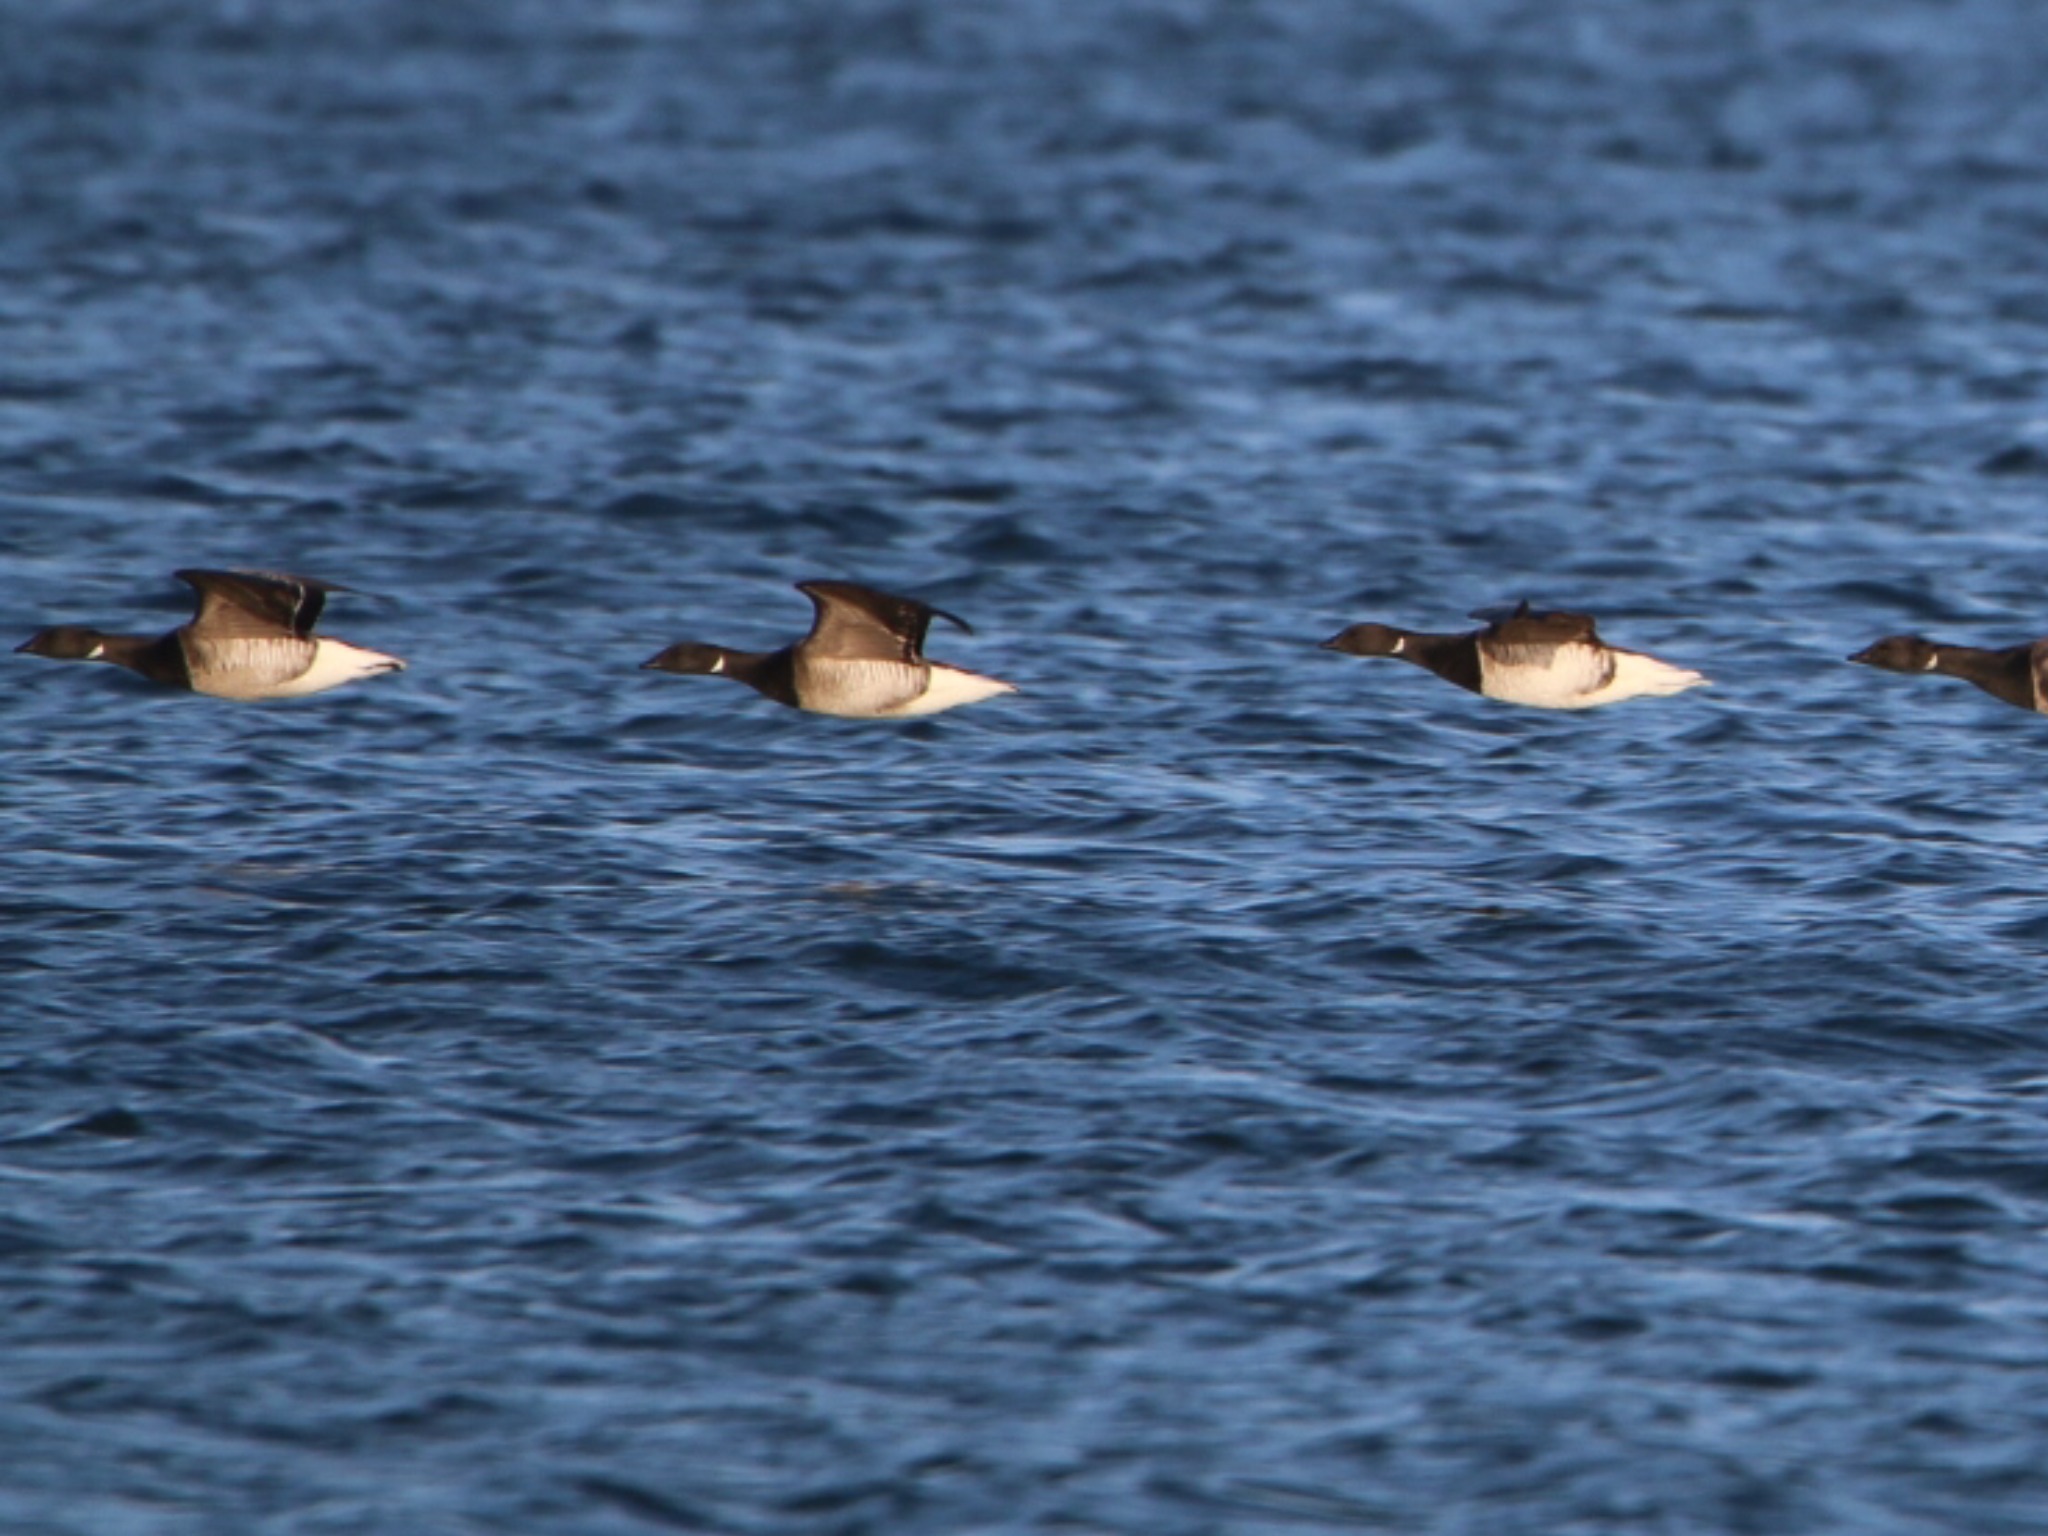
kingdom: Animalia
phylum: Chordata
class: Aves
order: Anseriformes
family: Anatidae
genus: Branta
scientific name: Branta bernicla
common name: Knortegås
